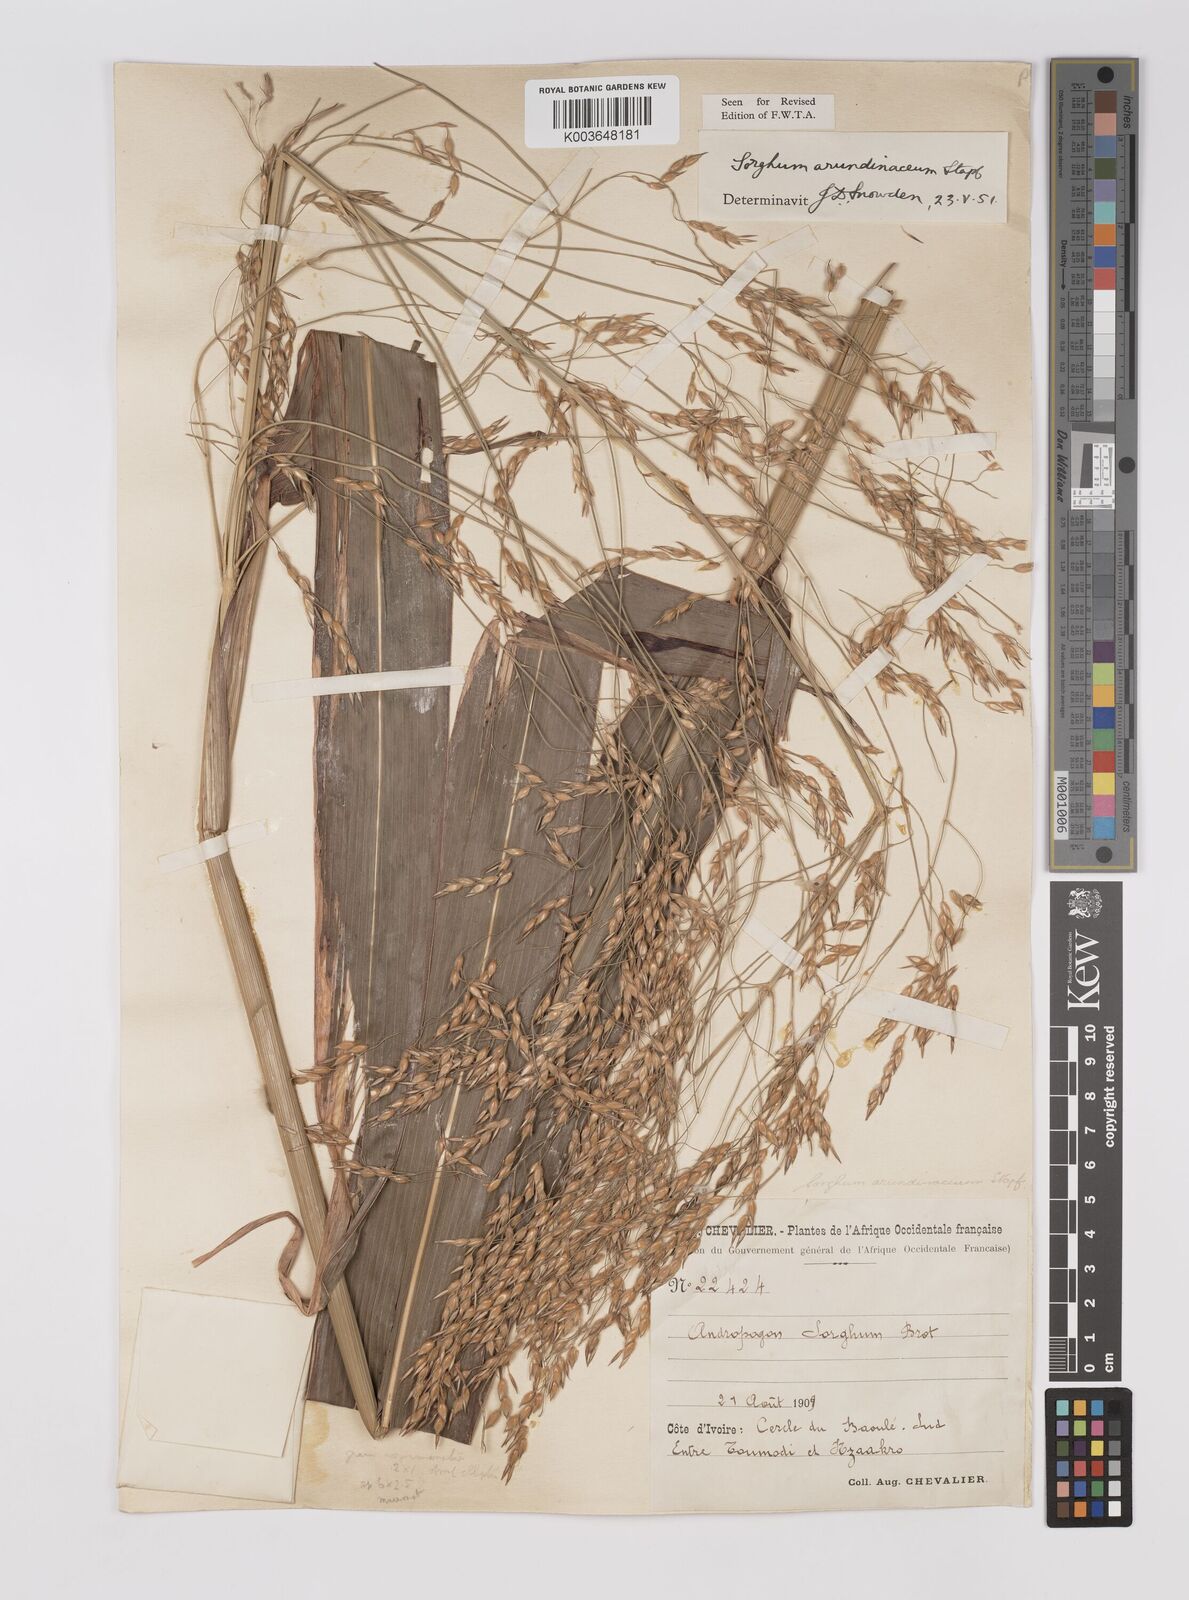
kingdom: Plantae
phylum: Tracheophyta
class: Liliopsida
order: Poales
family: Poaceae
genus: Sorghum
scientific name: Sorghum arundinaceum
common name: Sorghum
